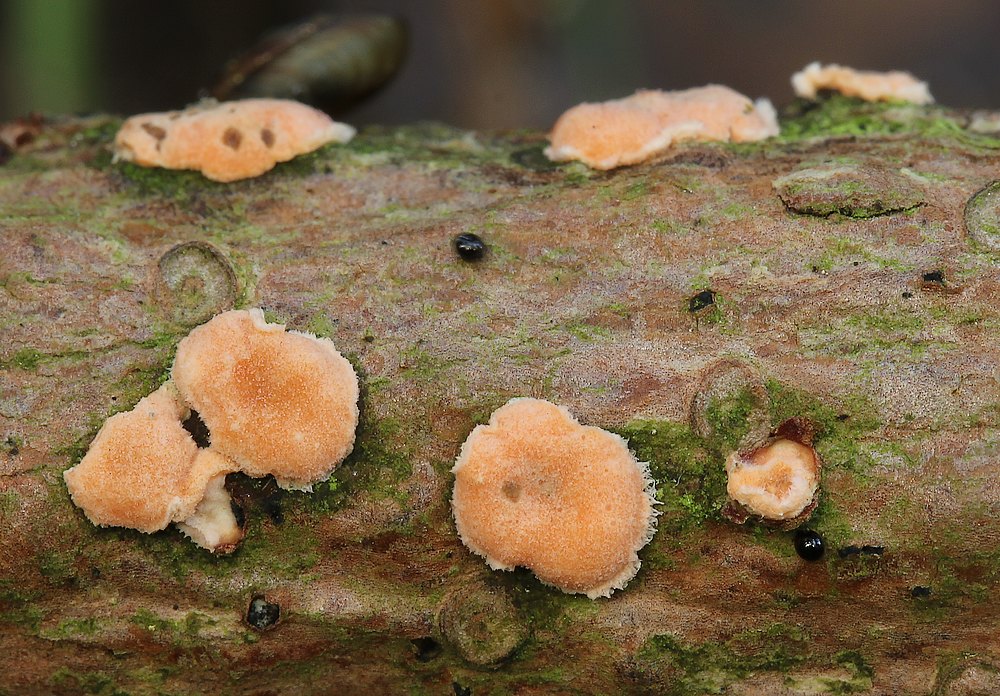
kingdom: Fungi
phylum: Basidiomycota
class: Agaricomycetes
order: Russulales
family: Stereaceae
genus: Aleurodiscus
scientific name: Aleurodiscus amorphus
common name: orange skiveskorpe
